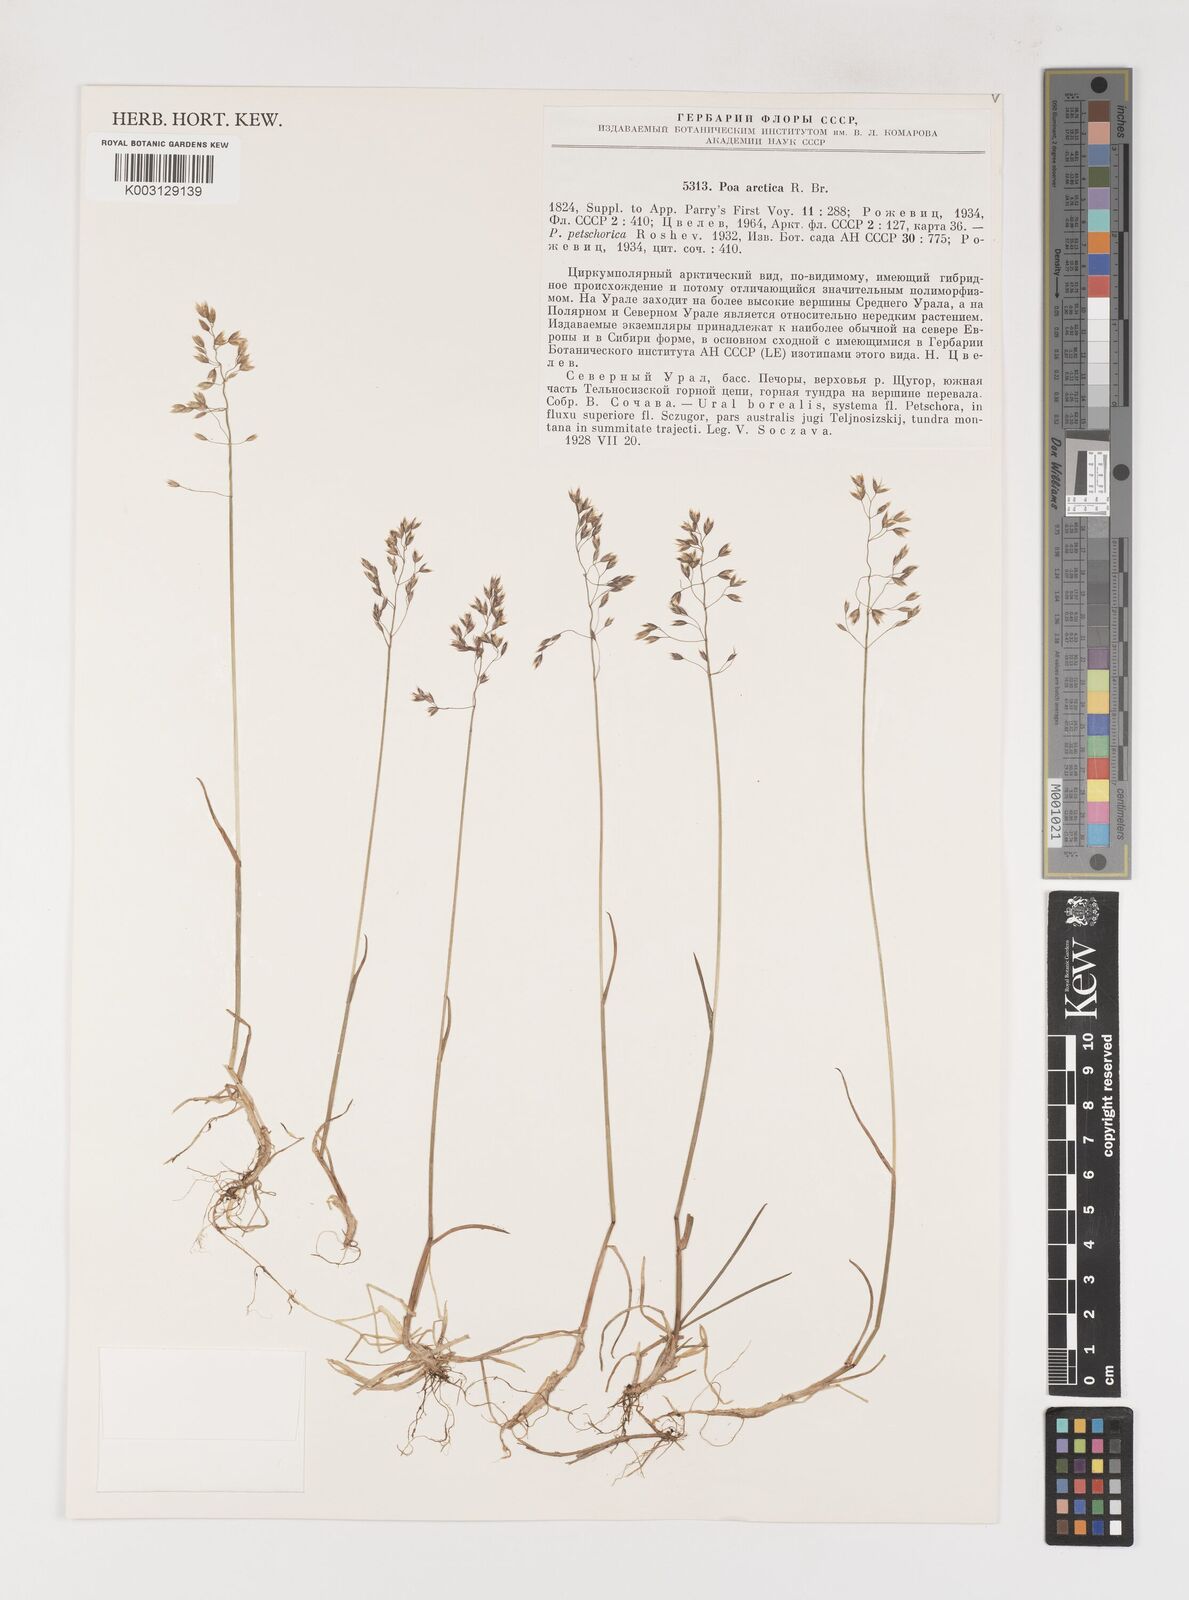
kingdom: Plantae
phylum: Tracheophyta
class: Liliopsida
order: Poales
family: Poaceae
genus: Poa
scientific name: Poa arctica
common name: Arctic bluegrass
